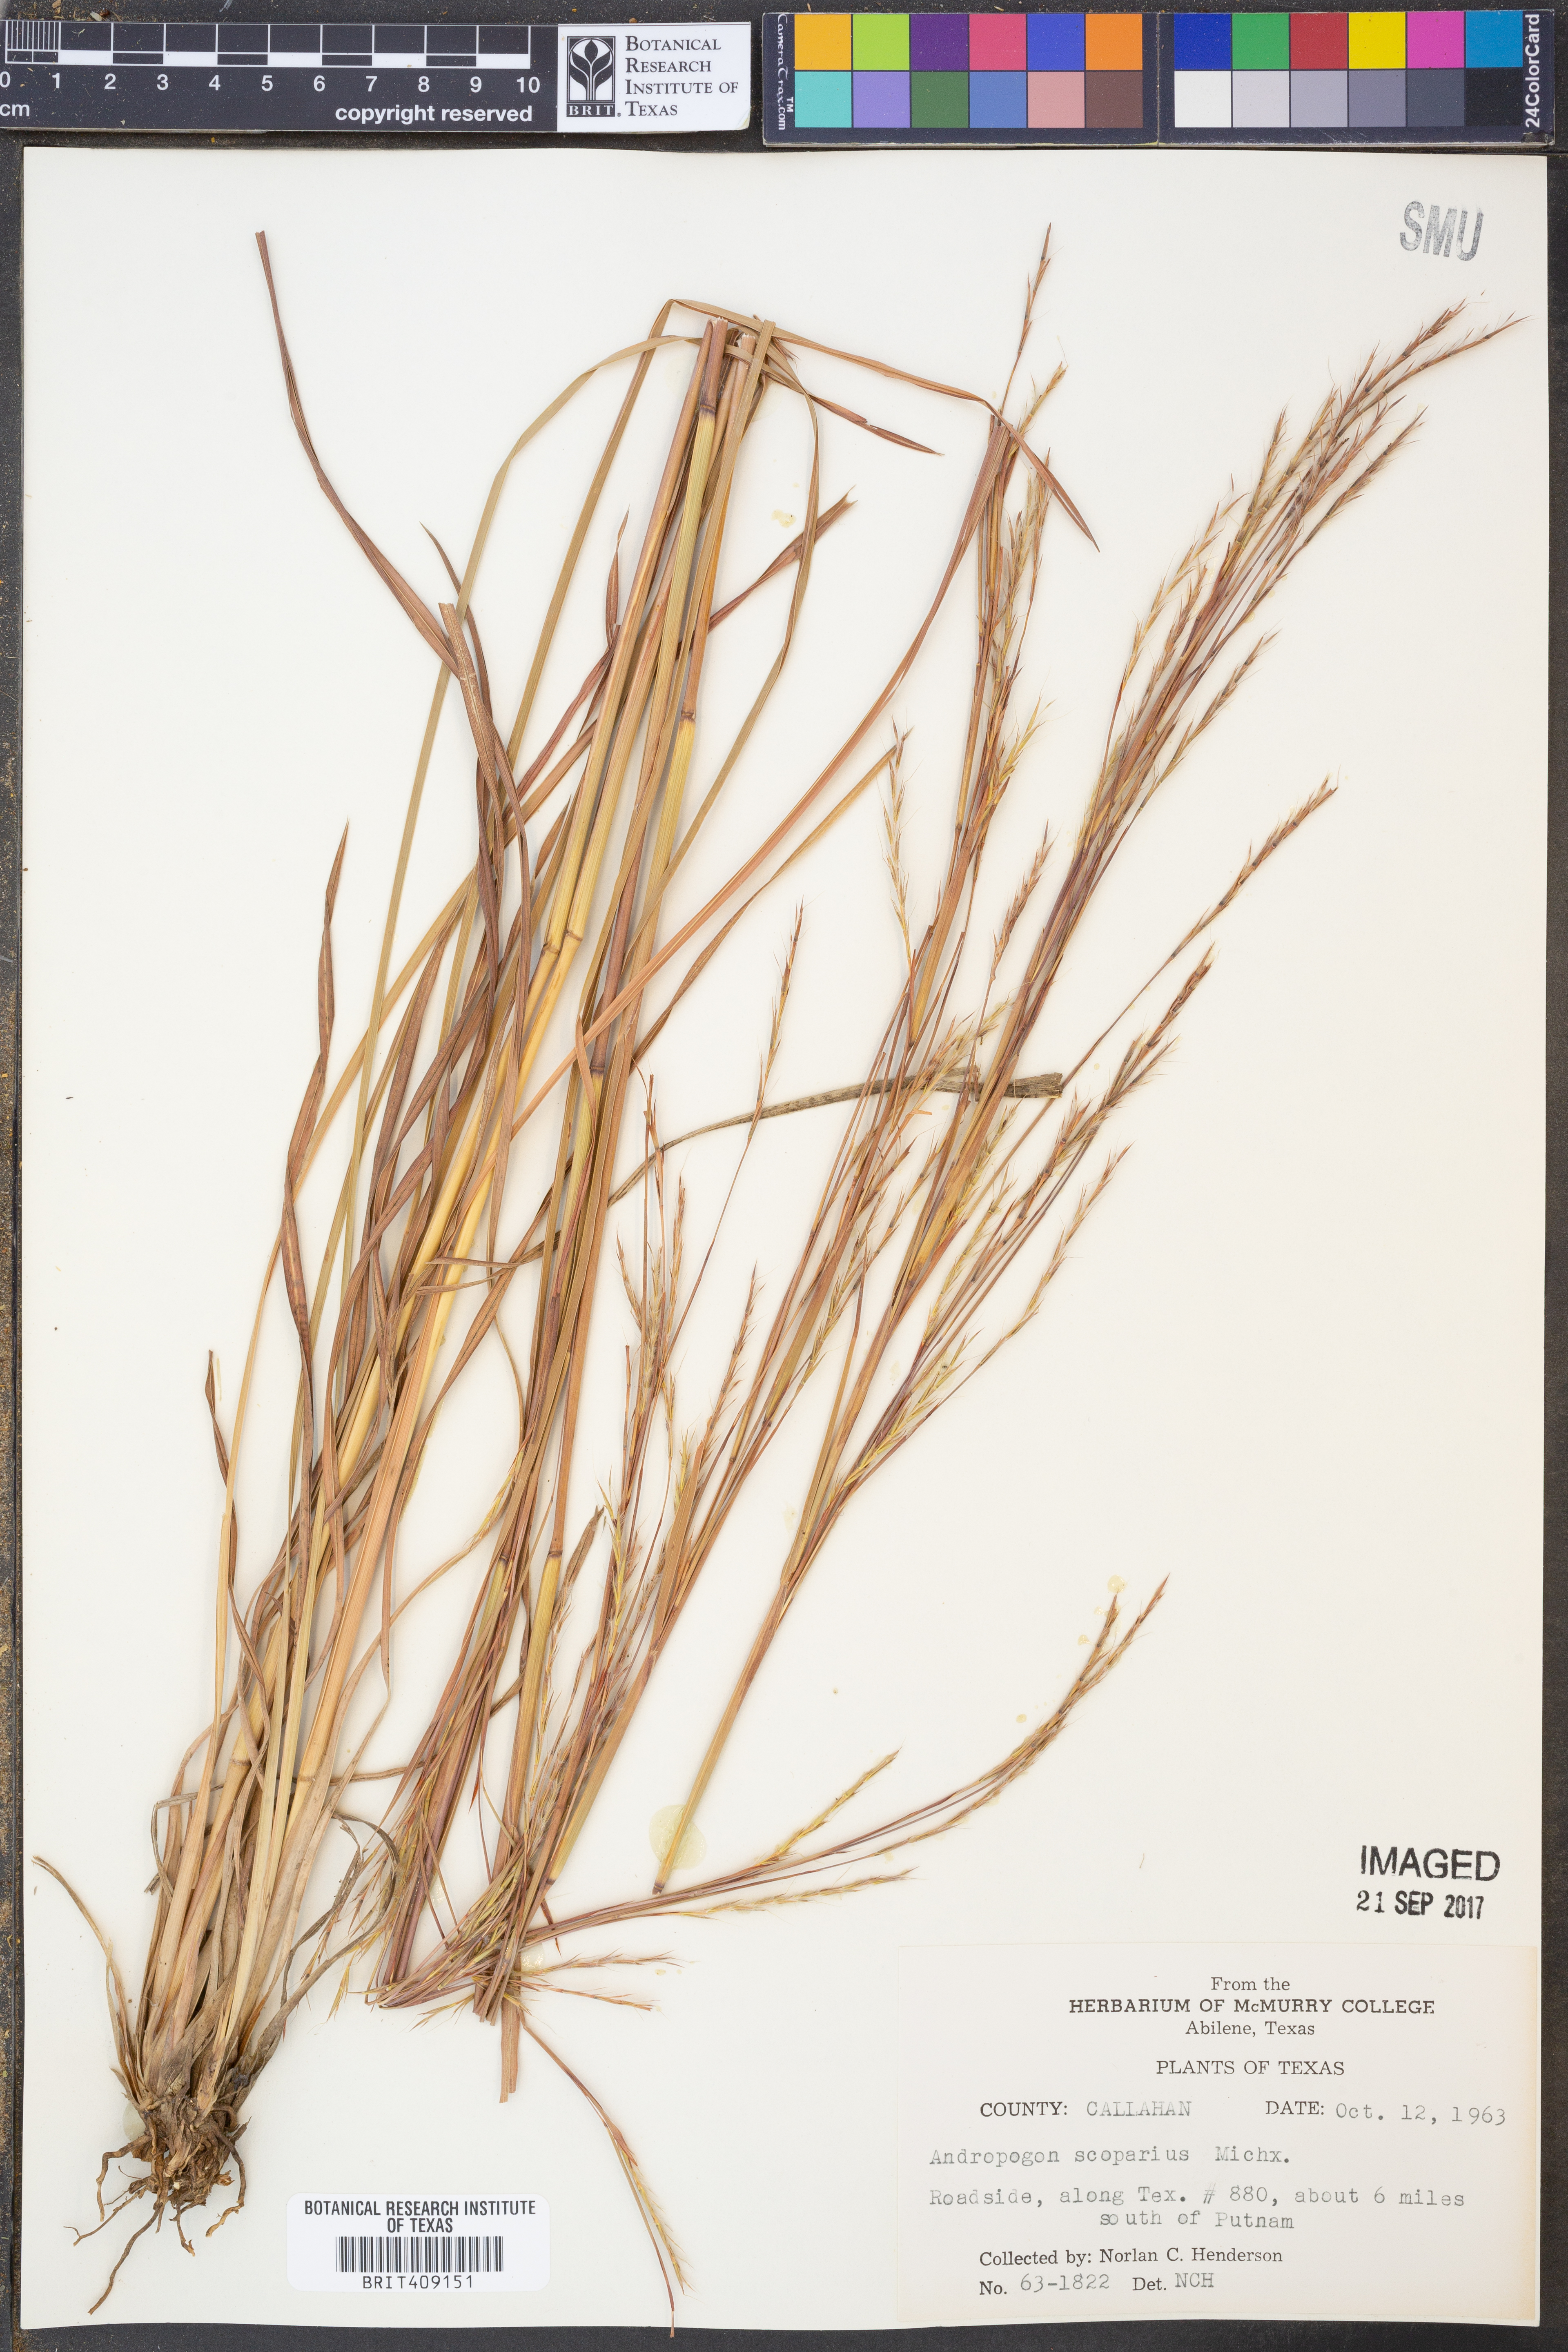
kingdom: Plantae
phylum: Tracheophyta
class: Liliopsida
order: Poales
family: Poaceae
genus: Schizachyrium
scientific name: Schizachyrium scoparium
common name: Little bluestem
